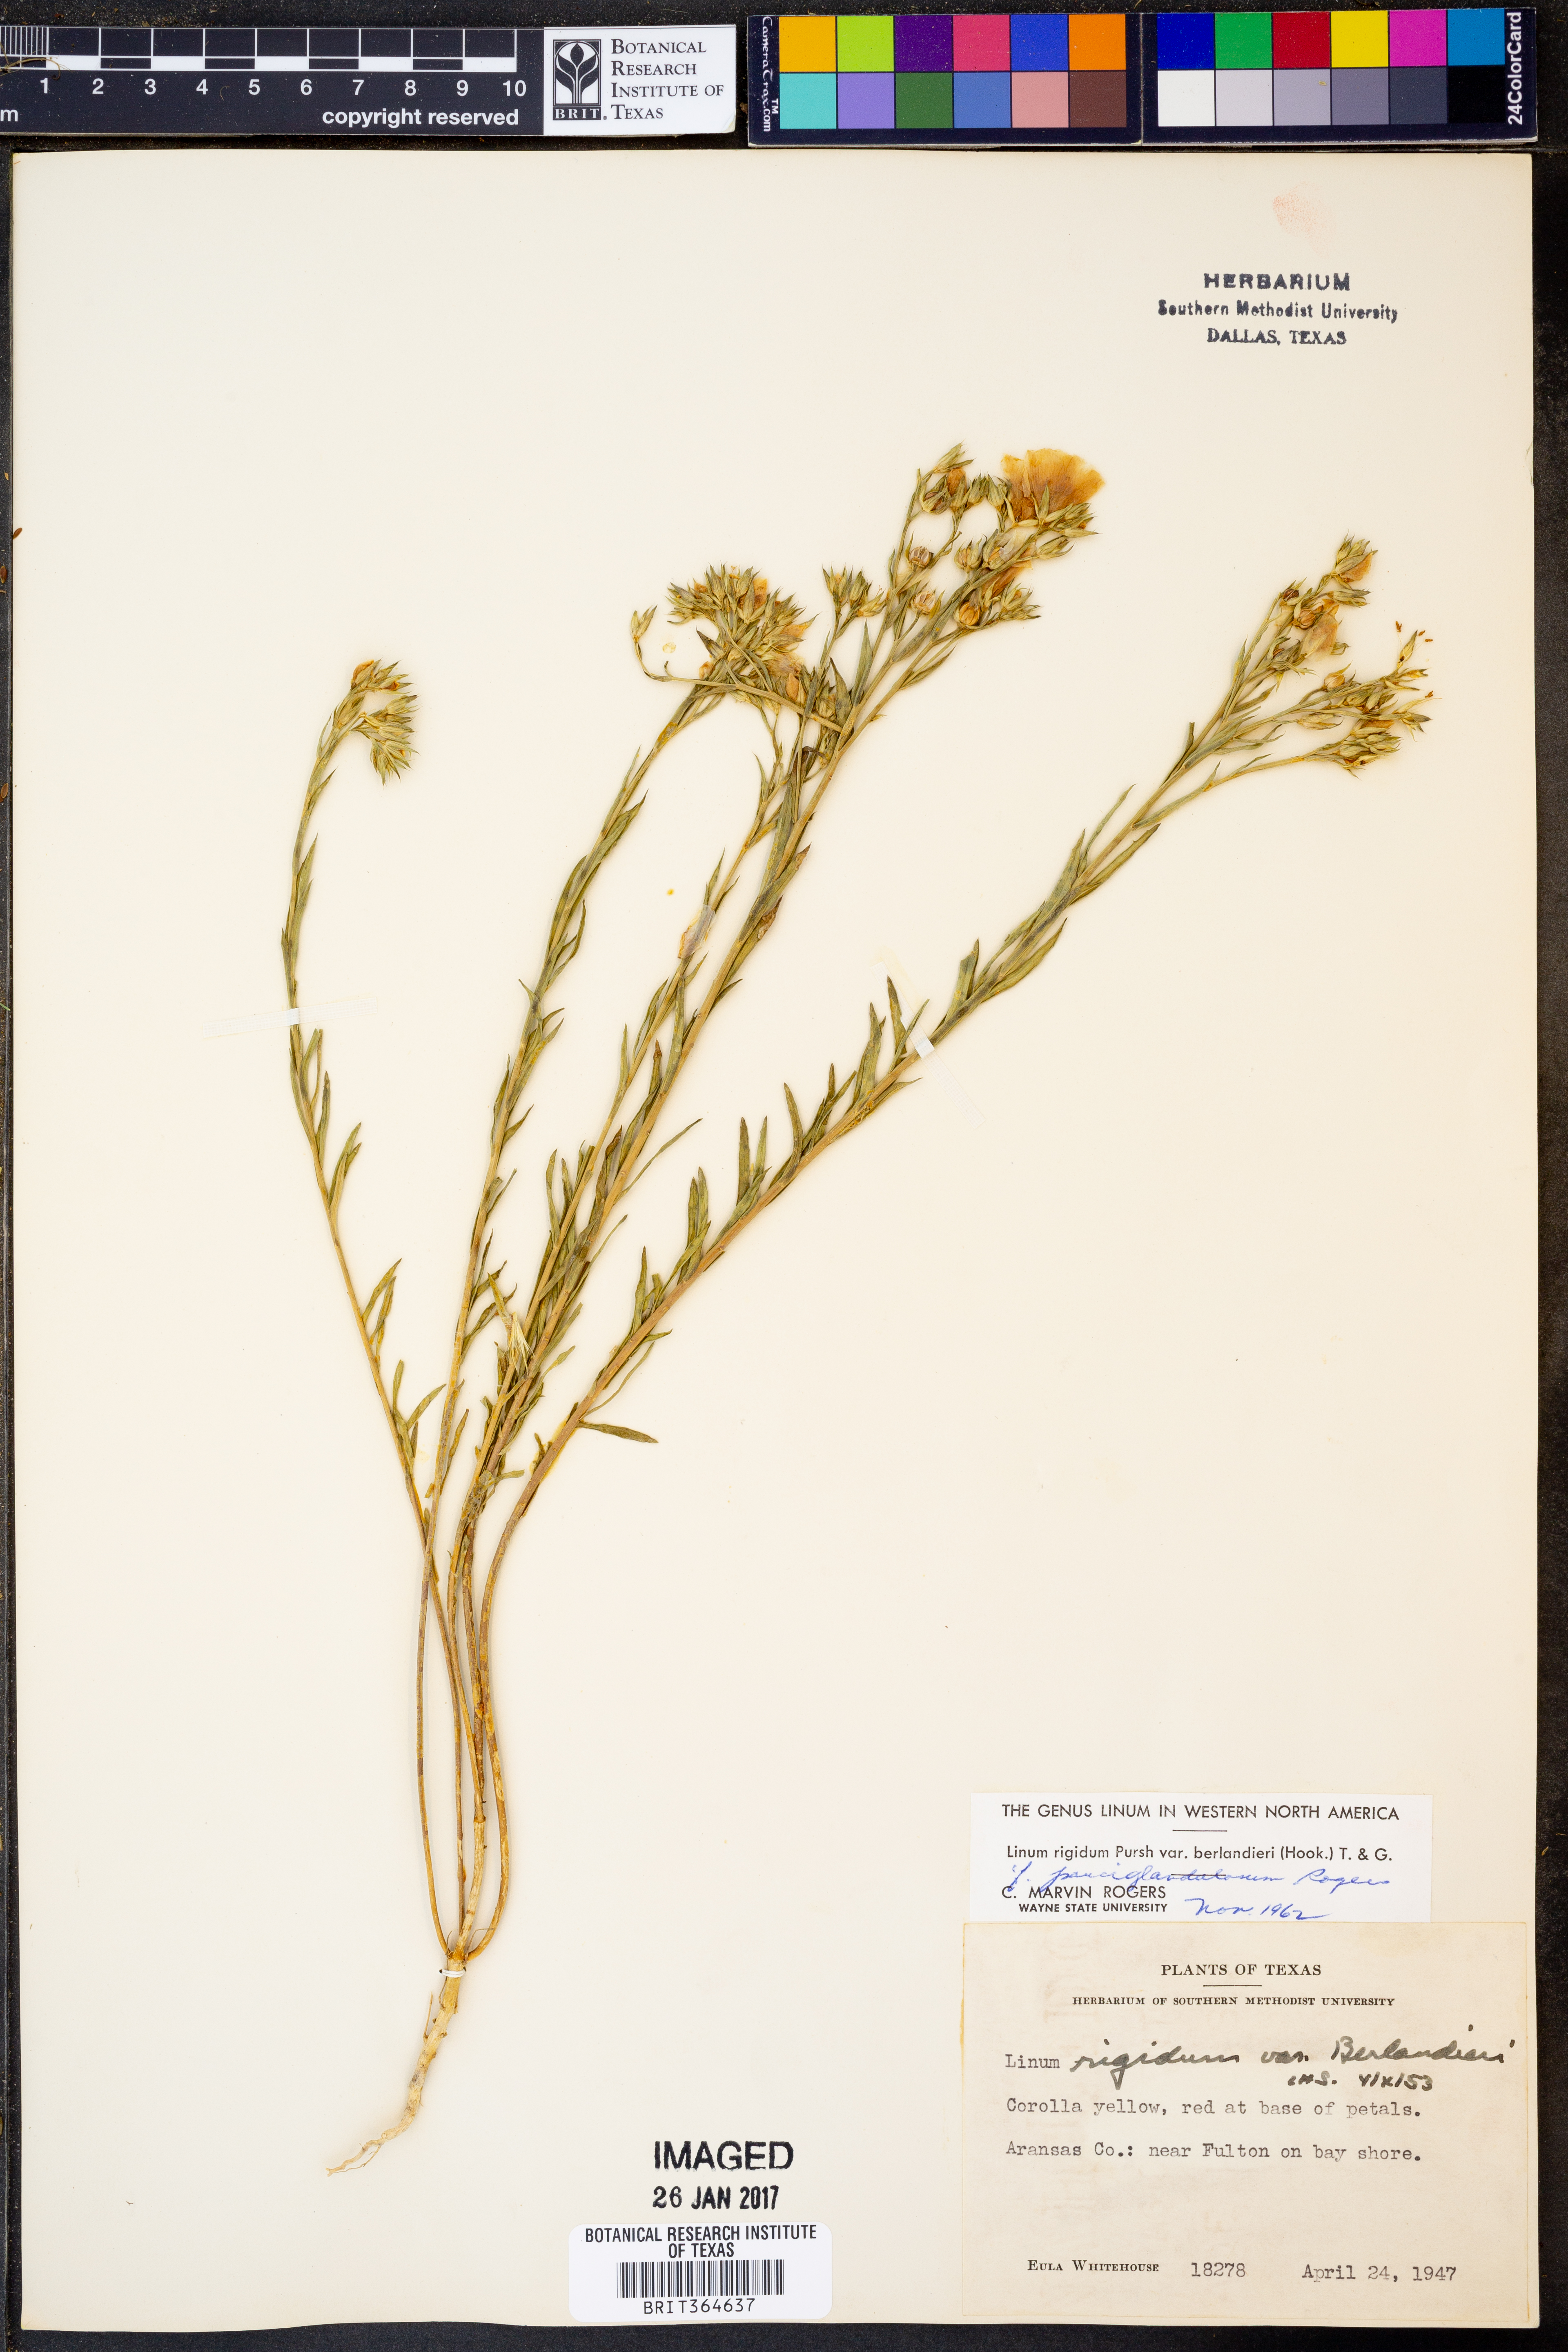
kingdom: Plantae
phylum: Tracheophyta
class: Magnoliopsida
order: Malpighiales
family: Linaceae
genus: Linum
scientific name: Linum berlandieri
